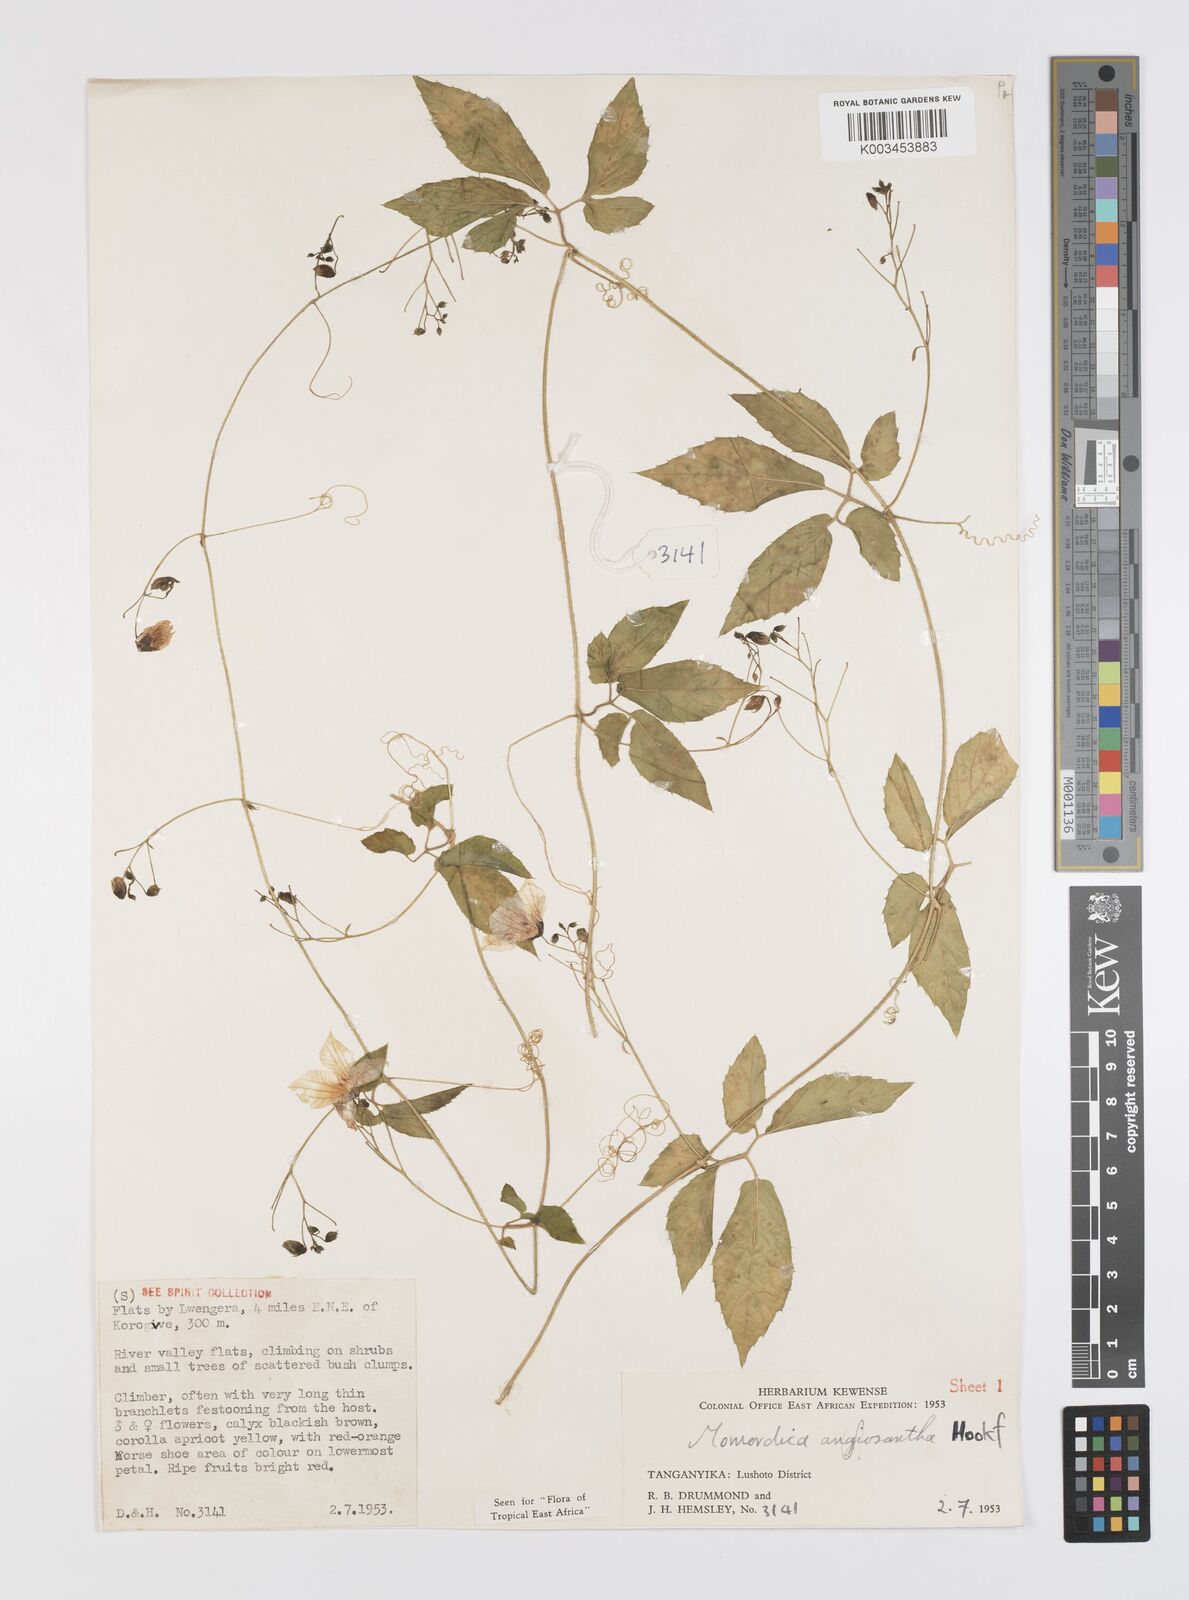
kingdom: Plantae
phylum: Tracheophyta
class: Magnoliopsida
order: Cucurbitales
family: Cucurbitaceae
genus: Momordica
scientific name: Momordica anigosantha
